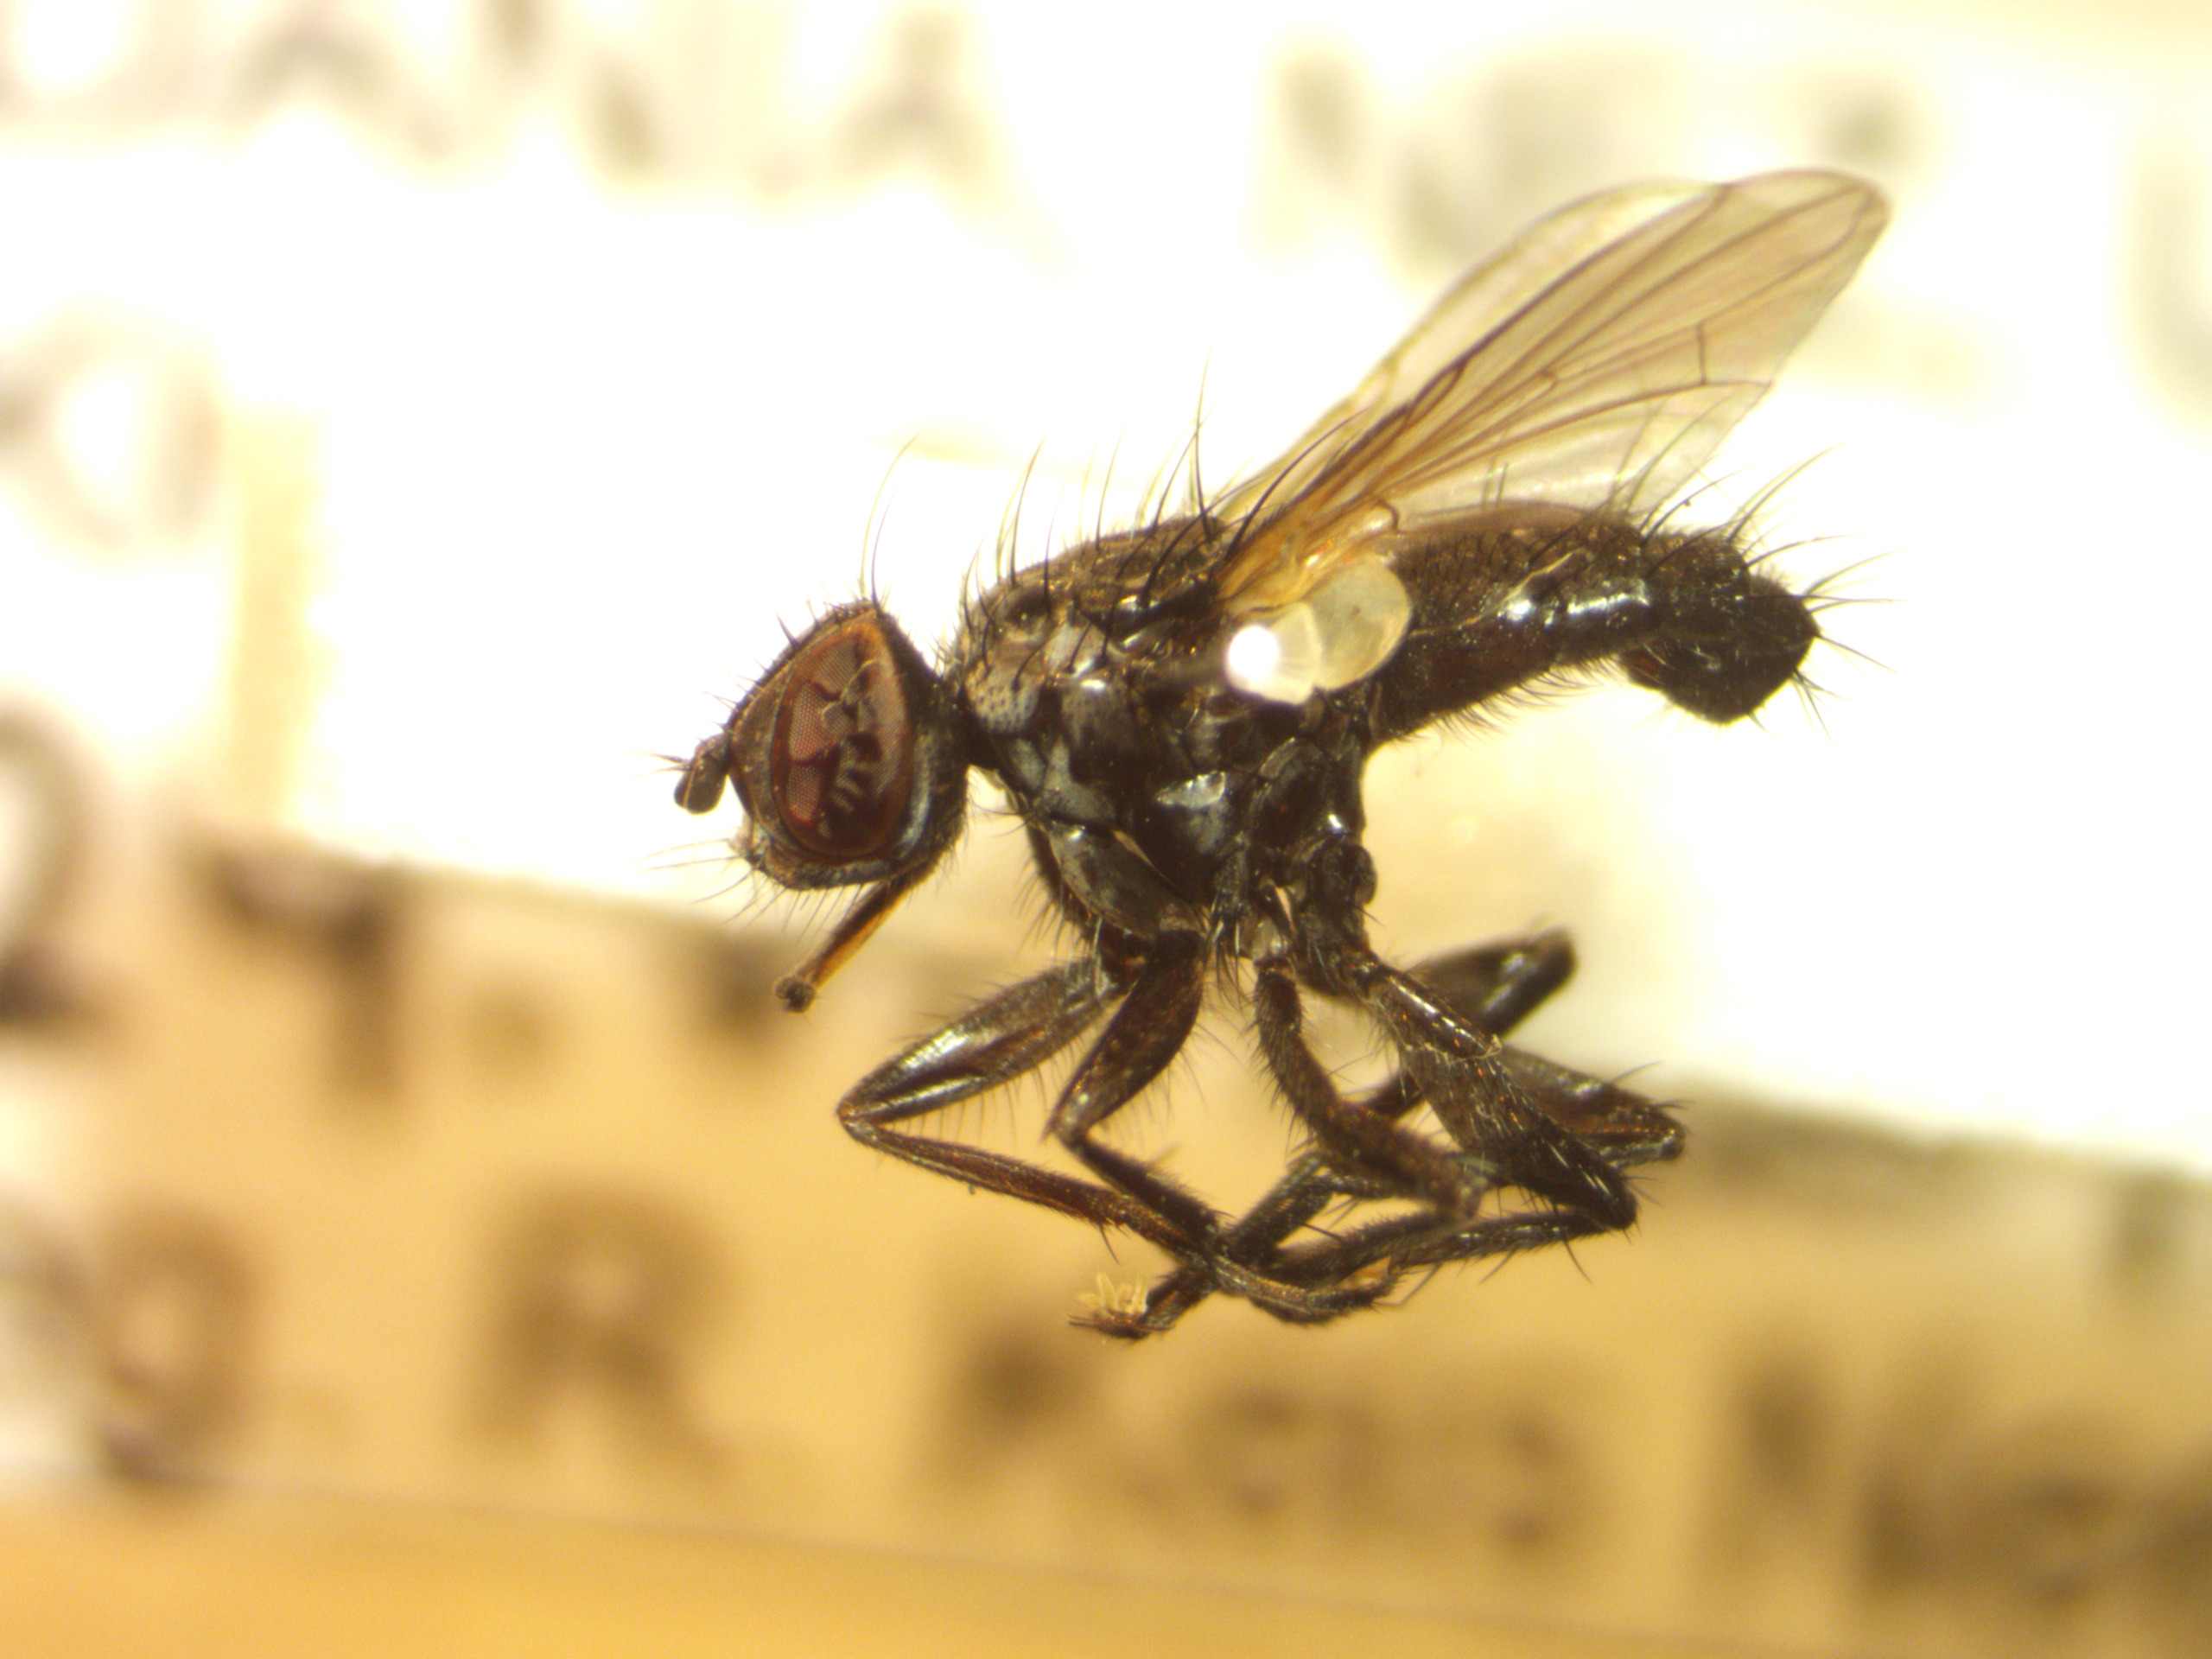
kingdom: Animalia
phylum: Arthropoda
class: Insecta
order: Diptera
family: Tachinidae
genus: Phania
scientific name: Phania funesta
